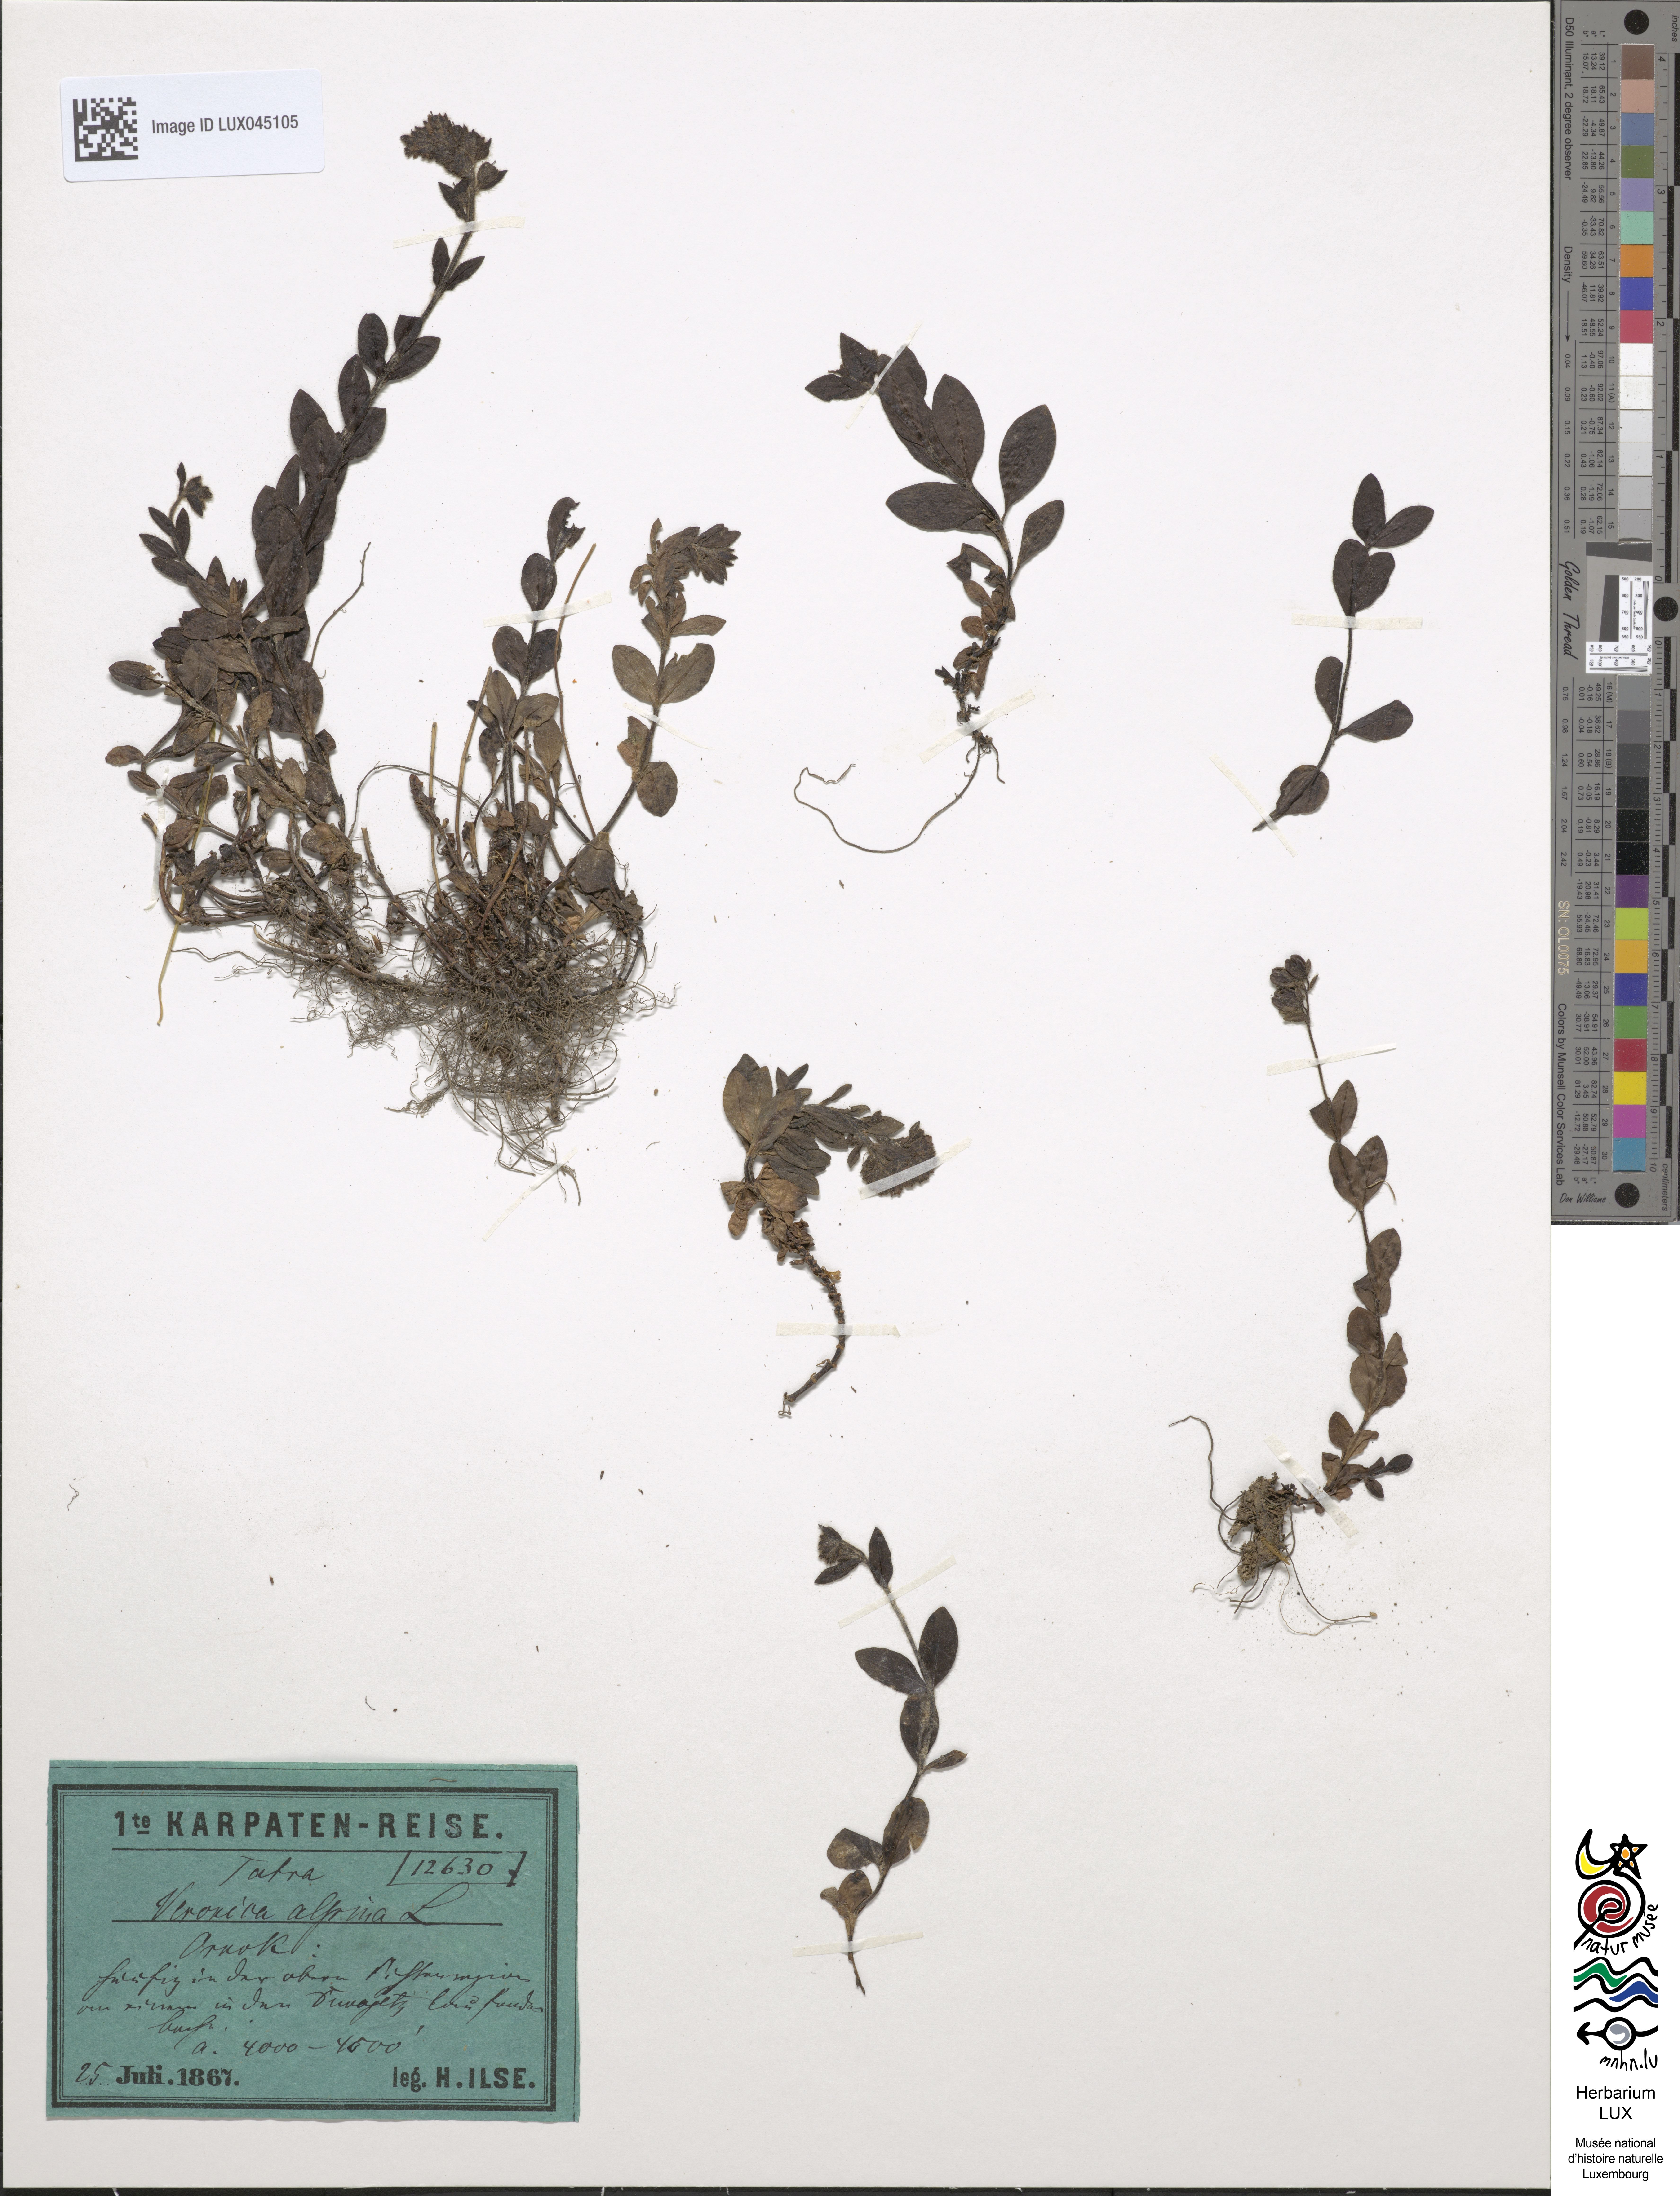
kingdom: Plantae
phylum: Tracheophyta
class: Magnoliopsida
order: Lamiales
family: Plantaginaceae
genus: Veronica
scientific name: Veronica alpina
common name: Alpine speedwell
